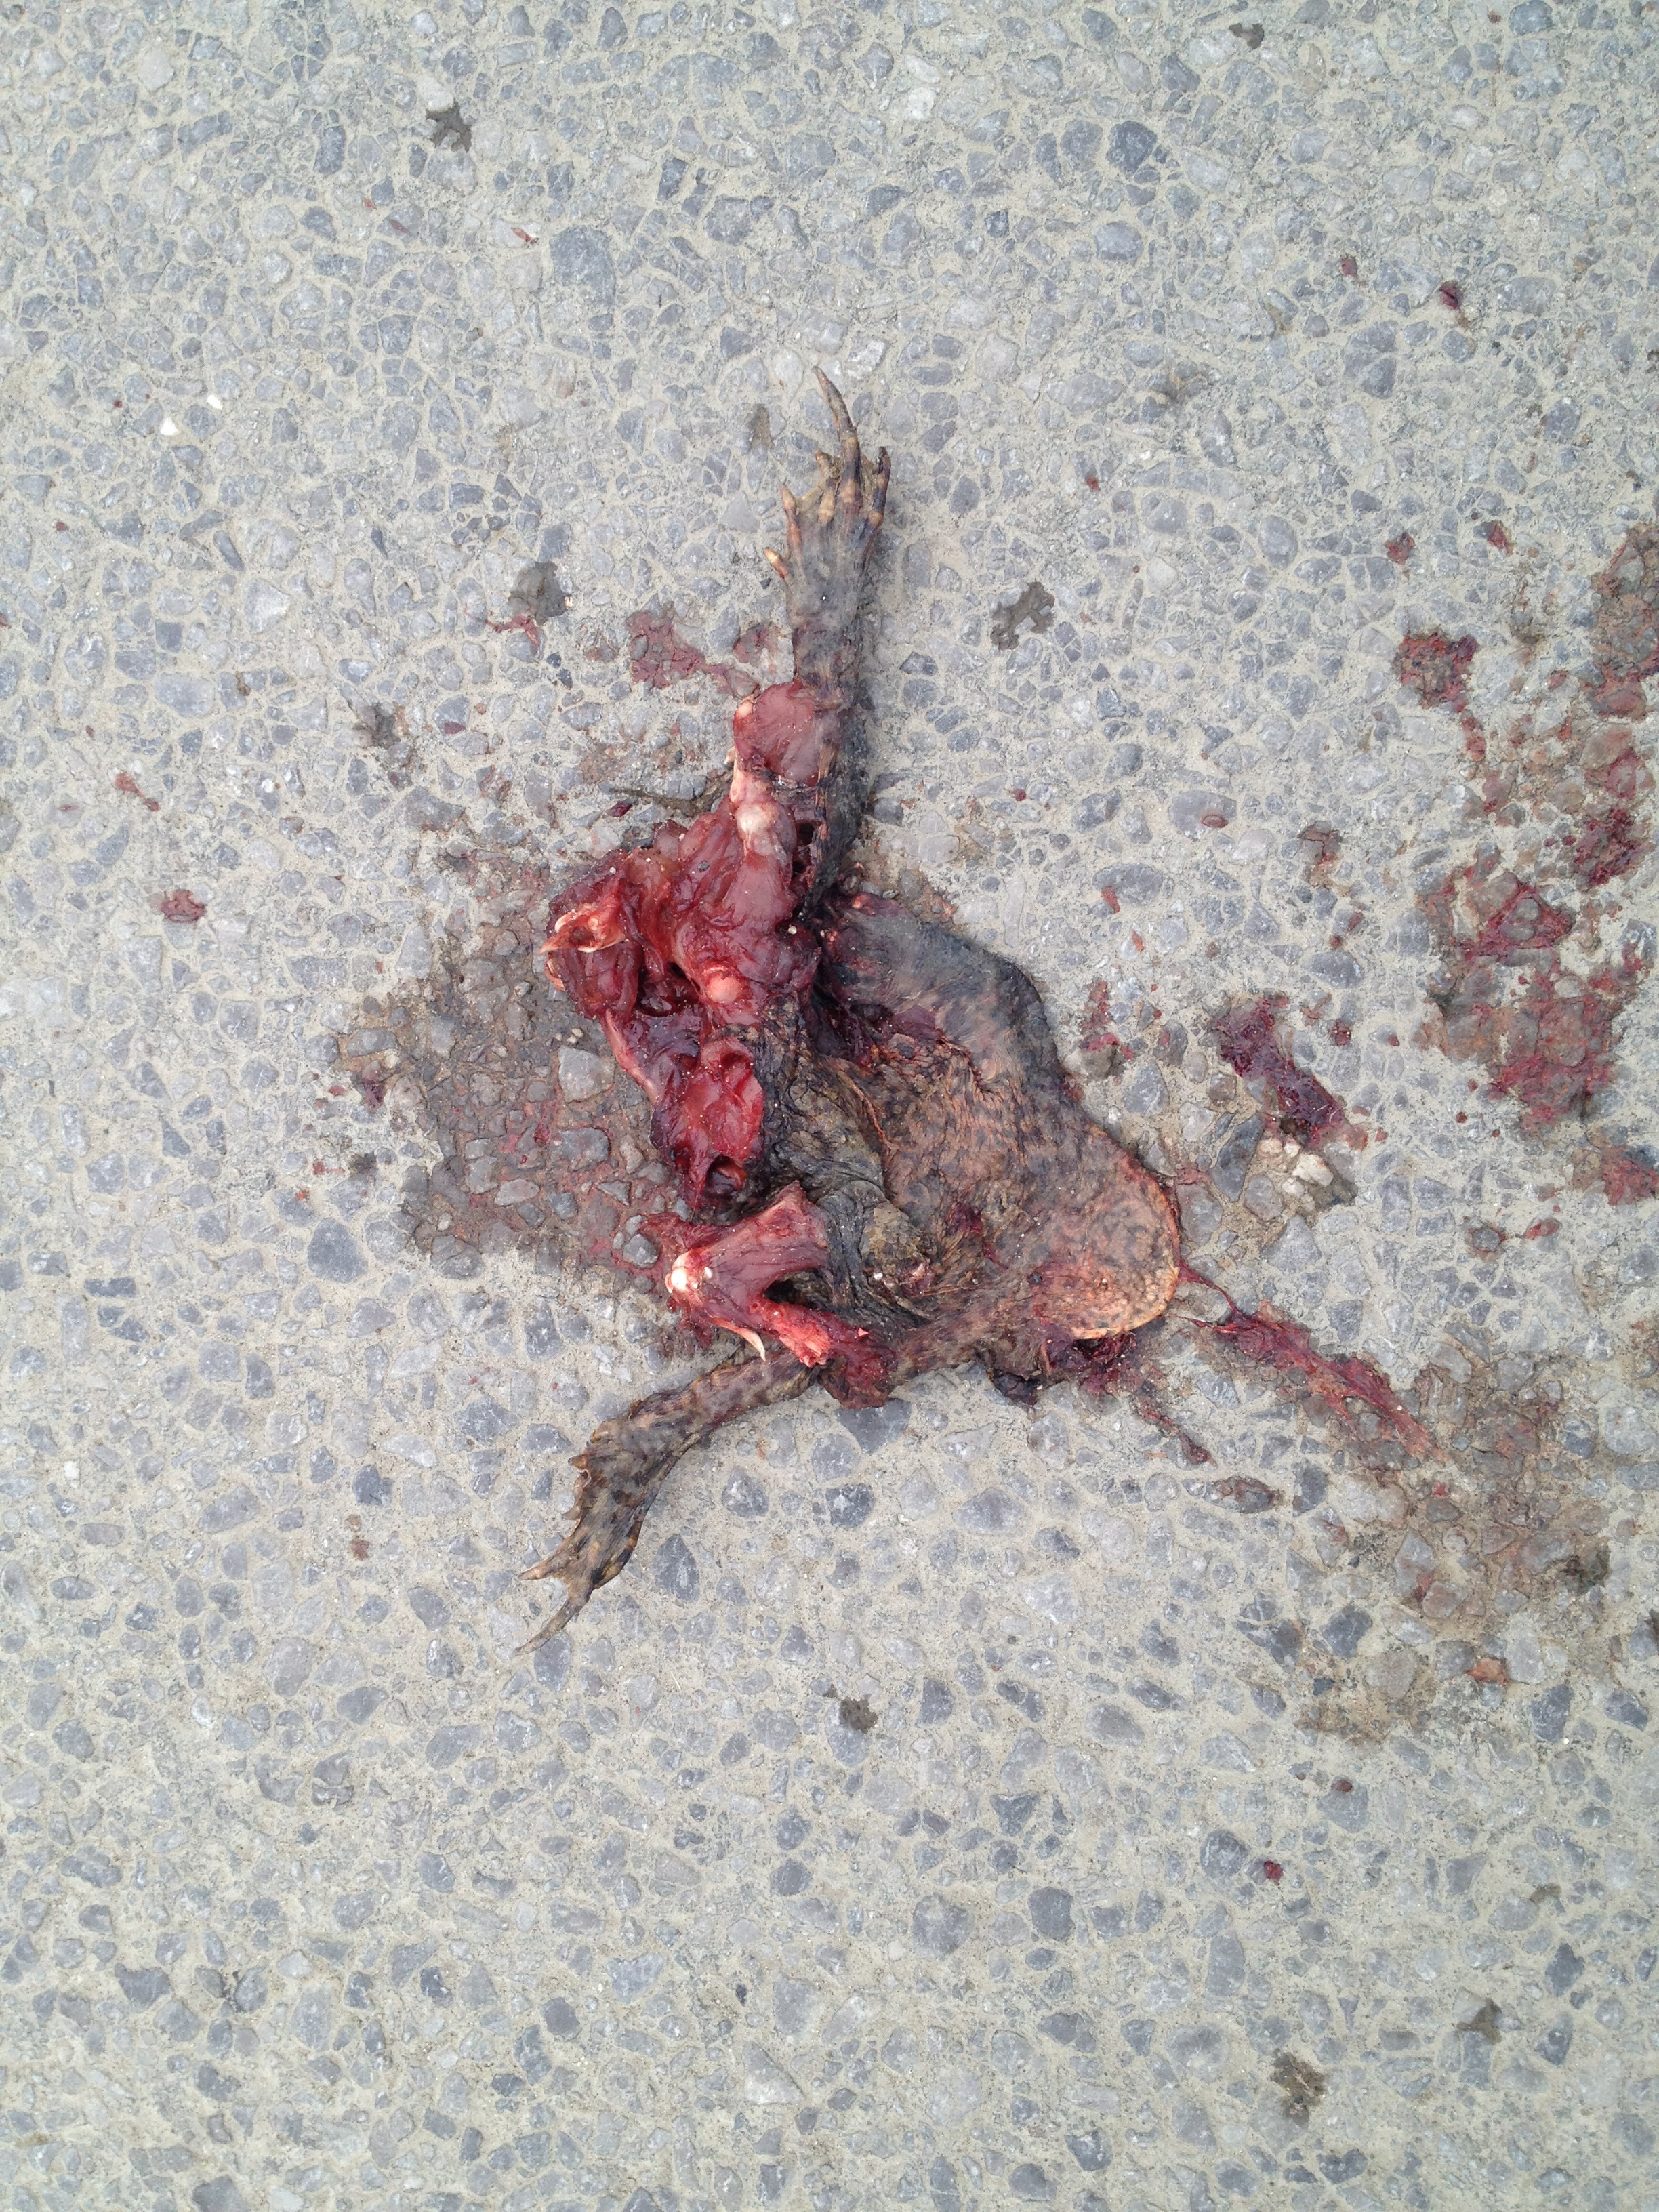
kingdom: Animalia
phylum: Chordata
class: Amphibia
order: Anura
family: Bufonidae
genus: Bufo
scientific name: Bufo bufo
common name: Common toad
